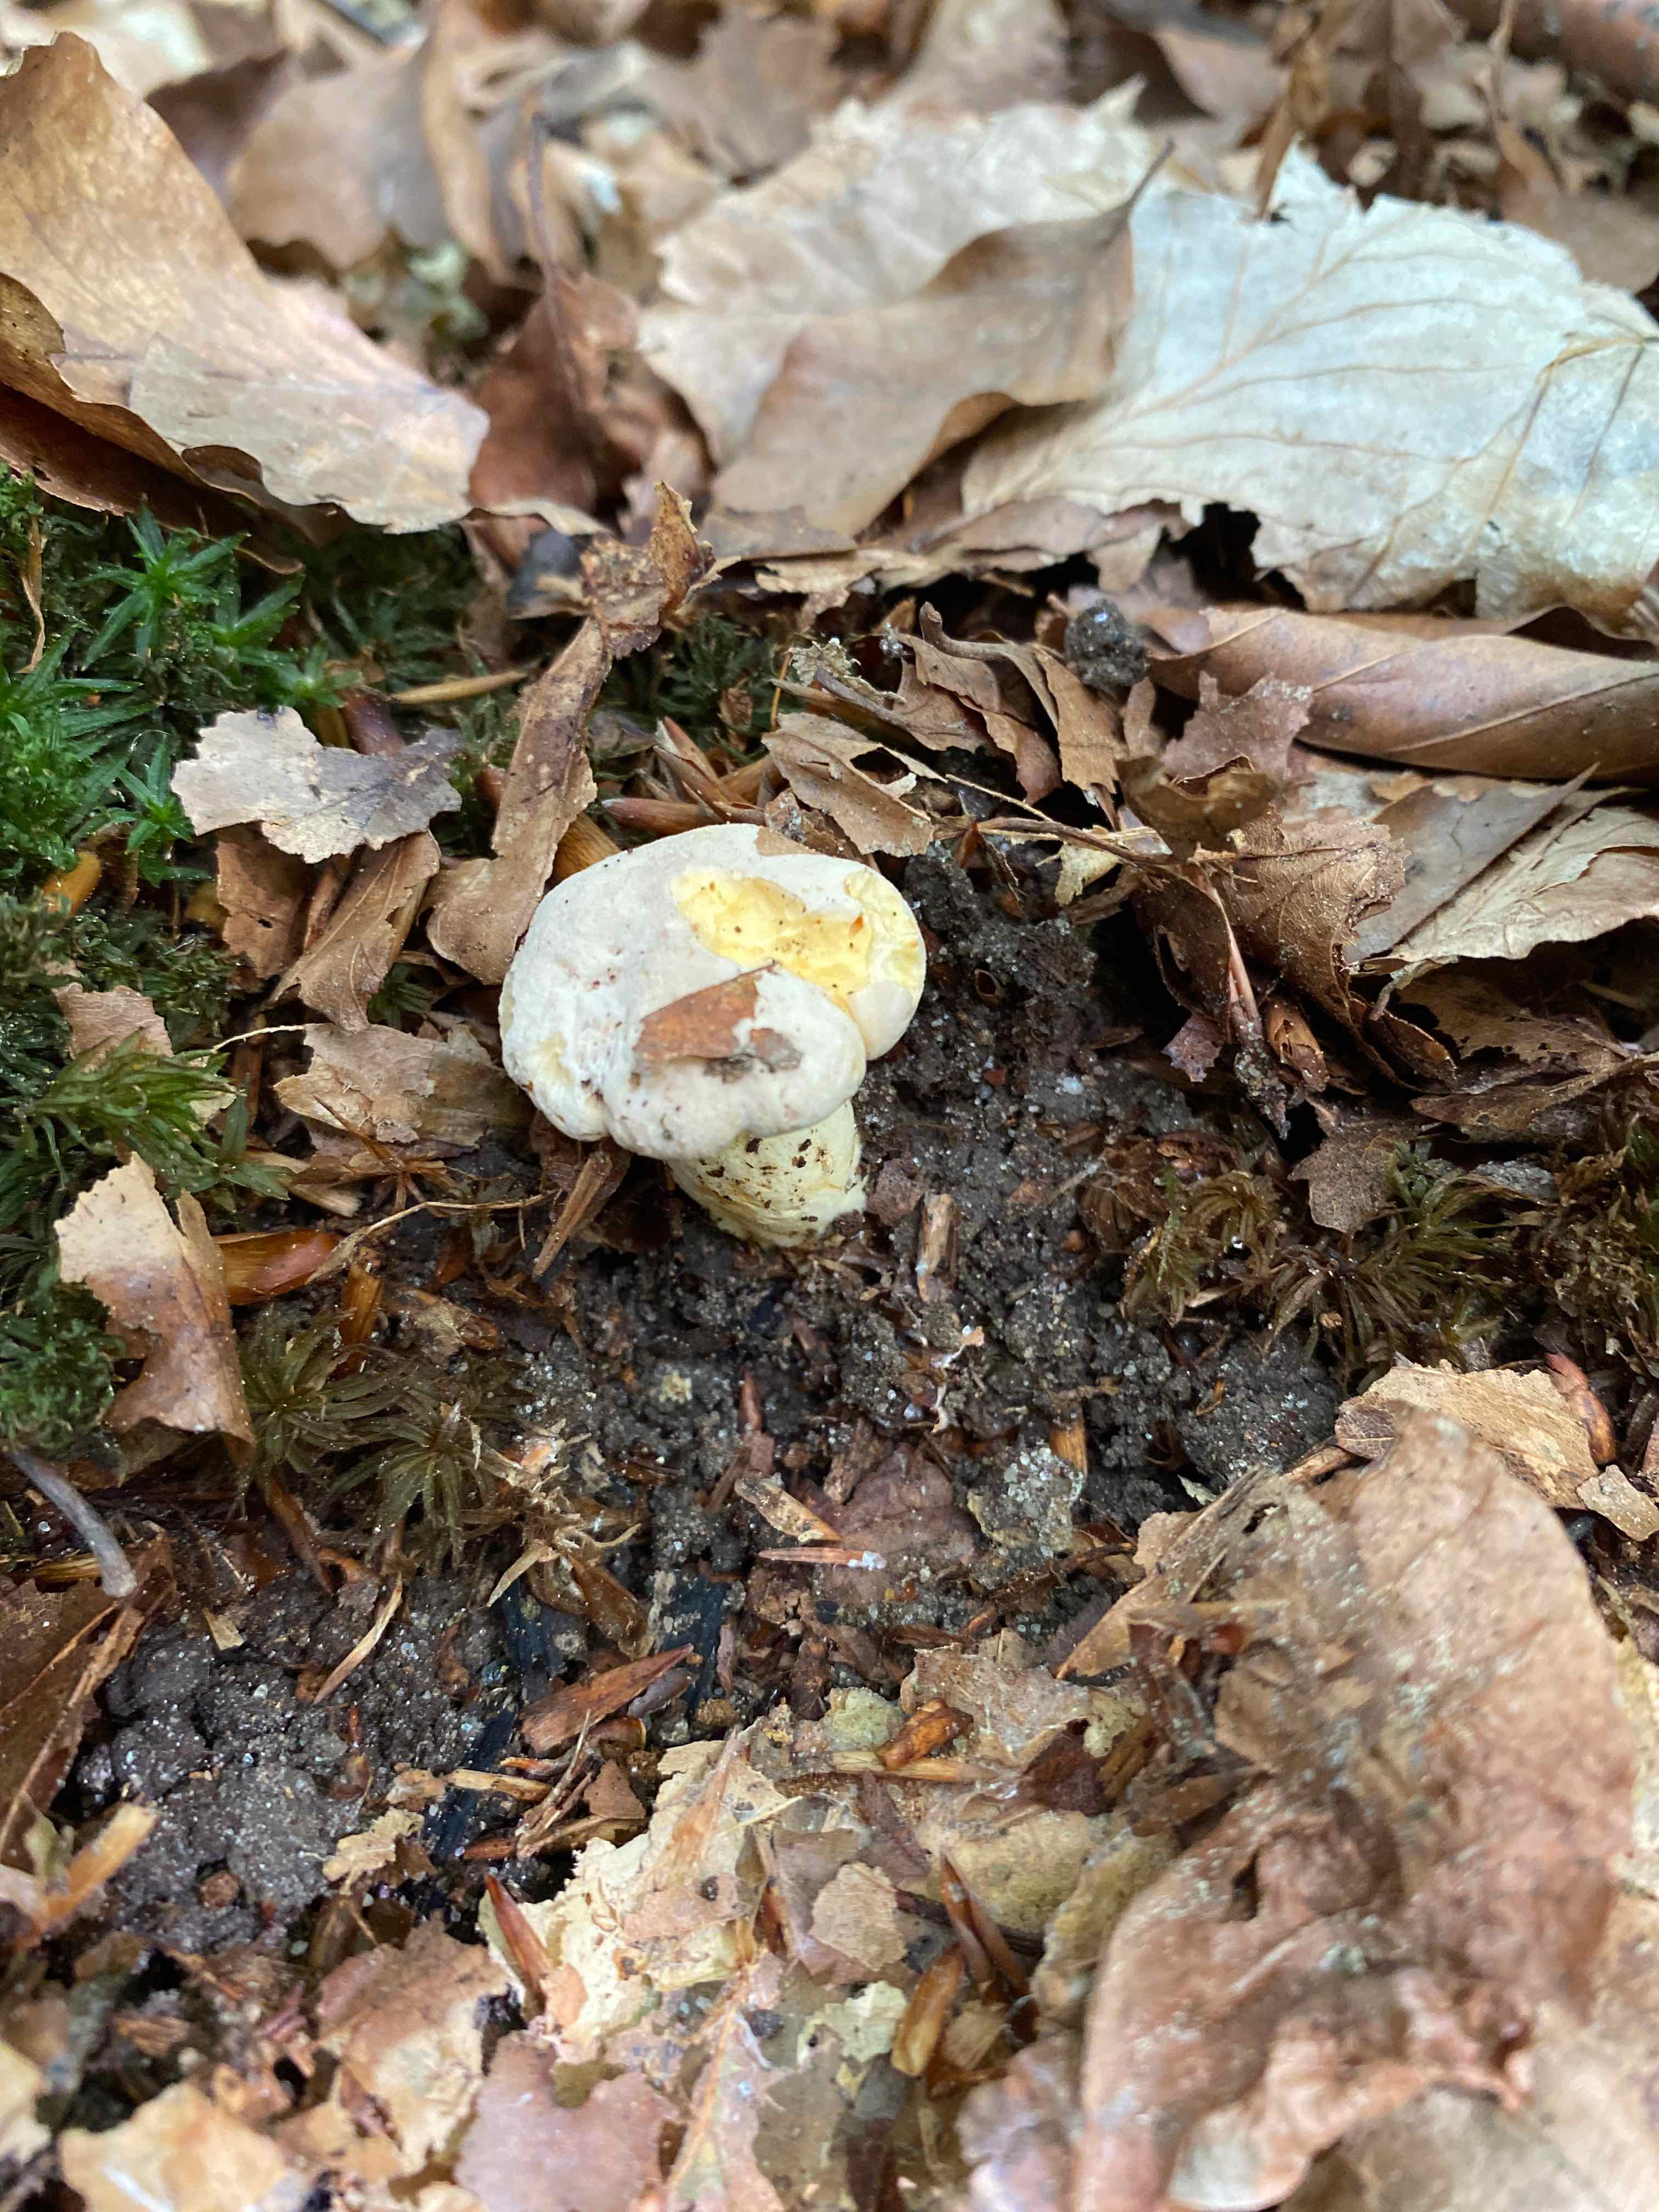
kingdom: Fungi
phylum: Basidiomycota
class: Agaricomycetes
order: Cantharellales
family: Hydnaceae
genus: Cantharellus
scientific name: Cantharellus
